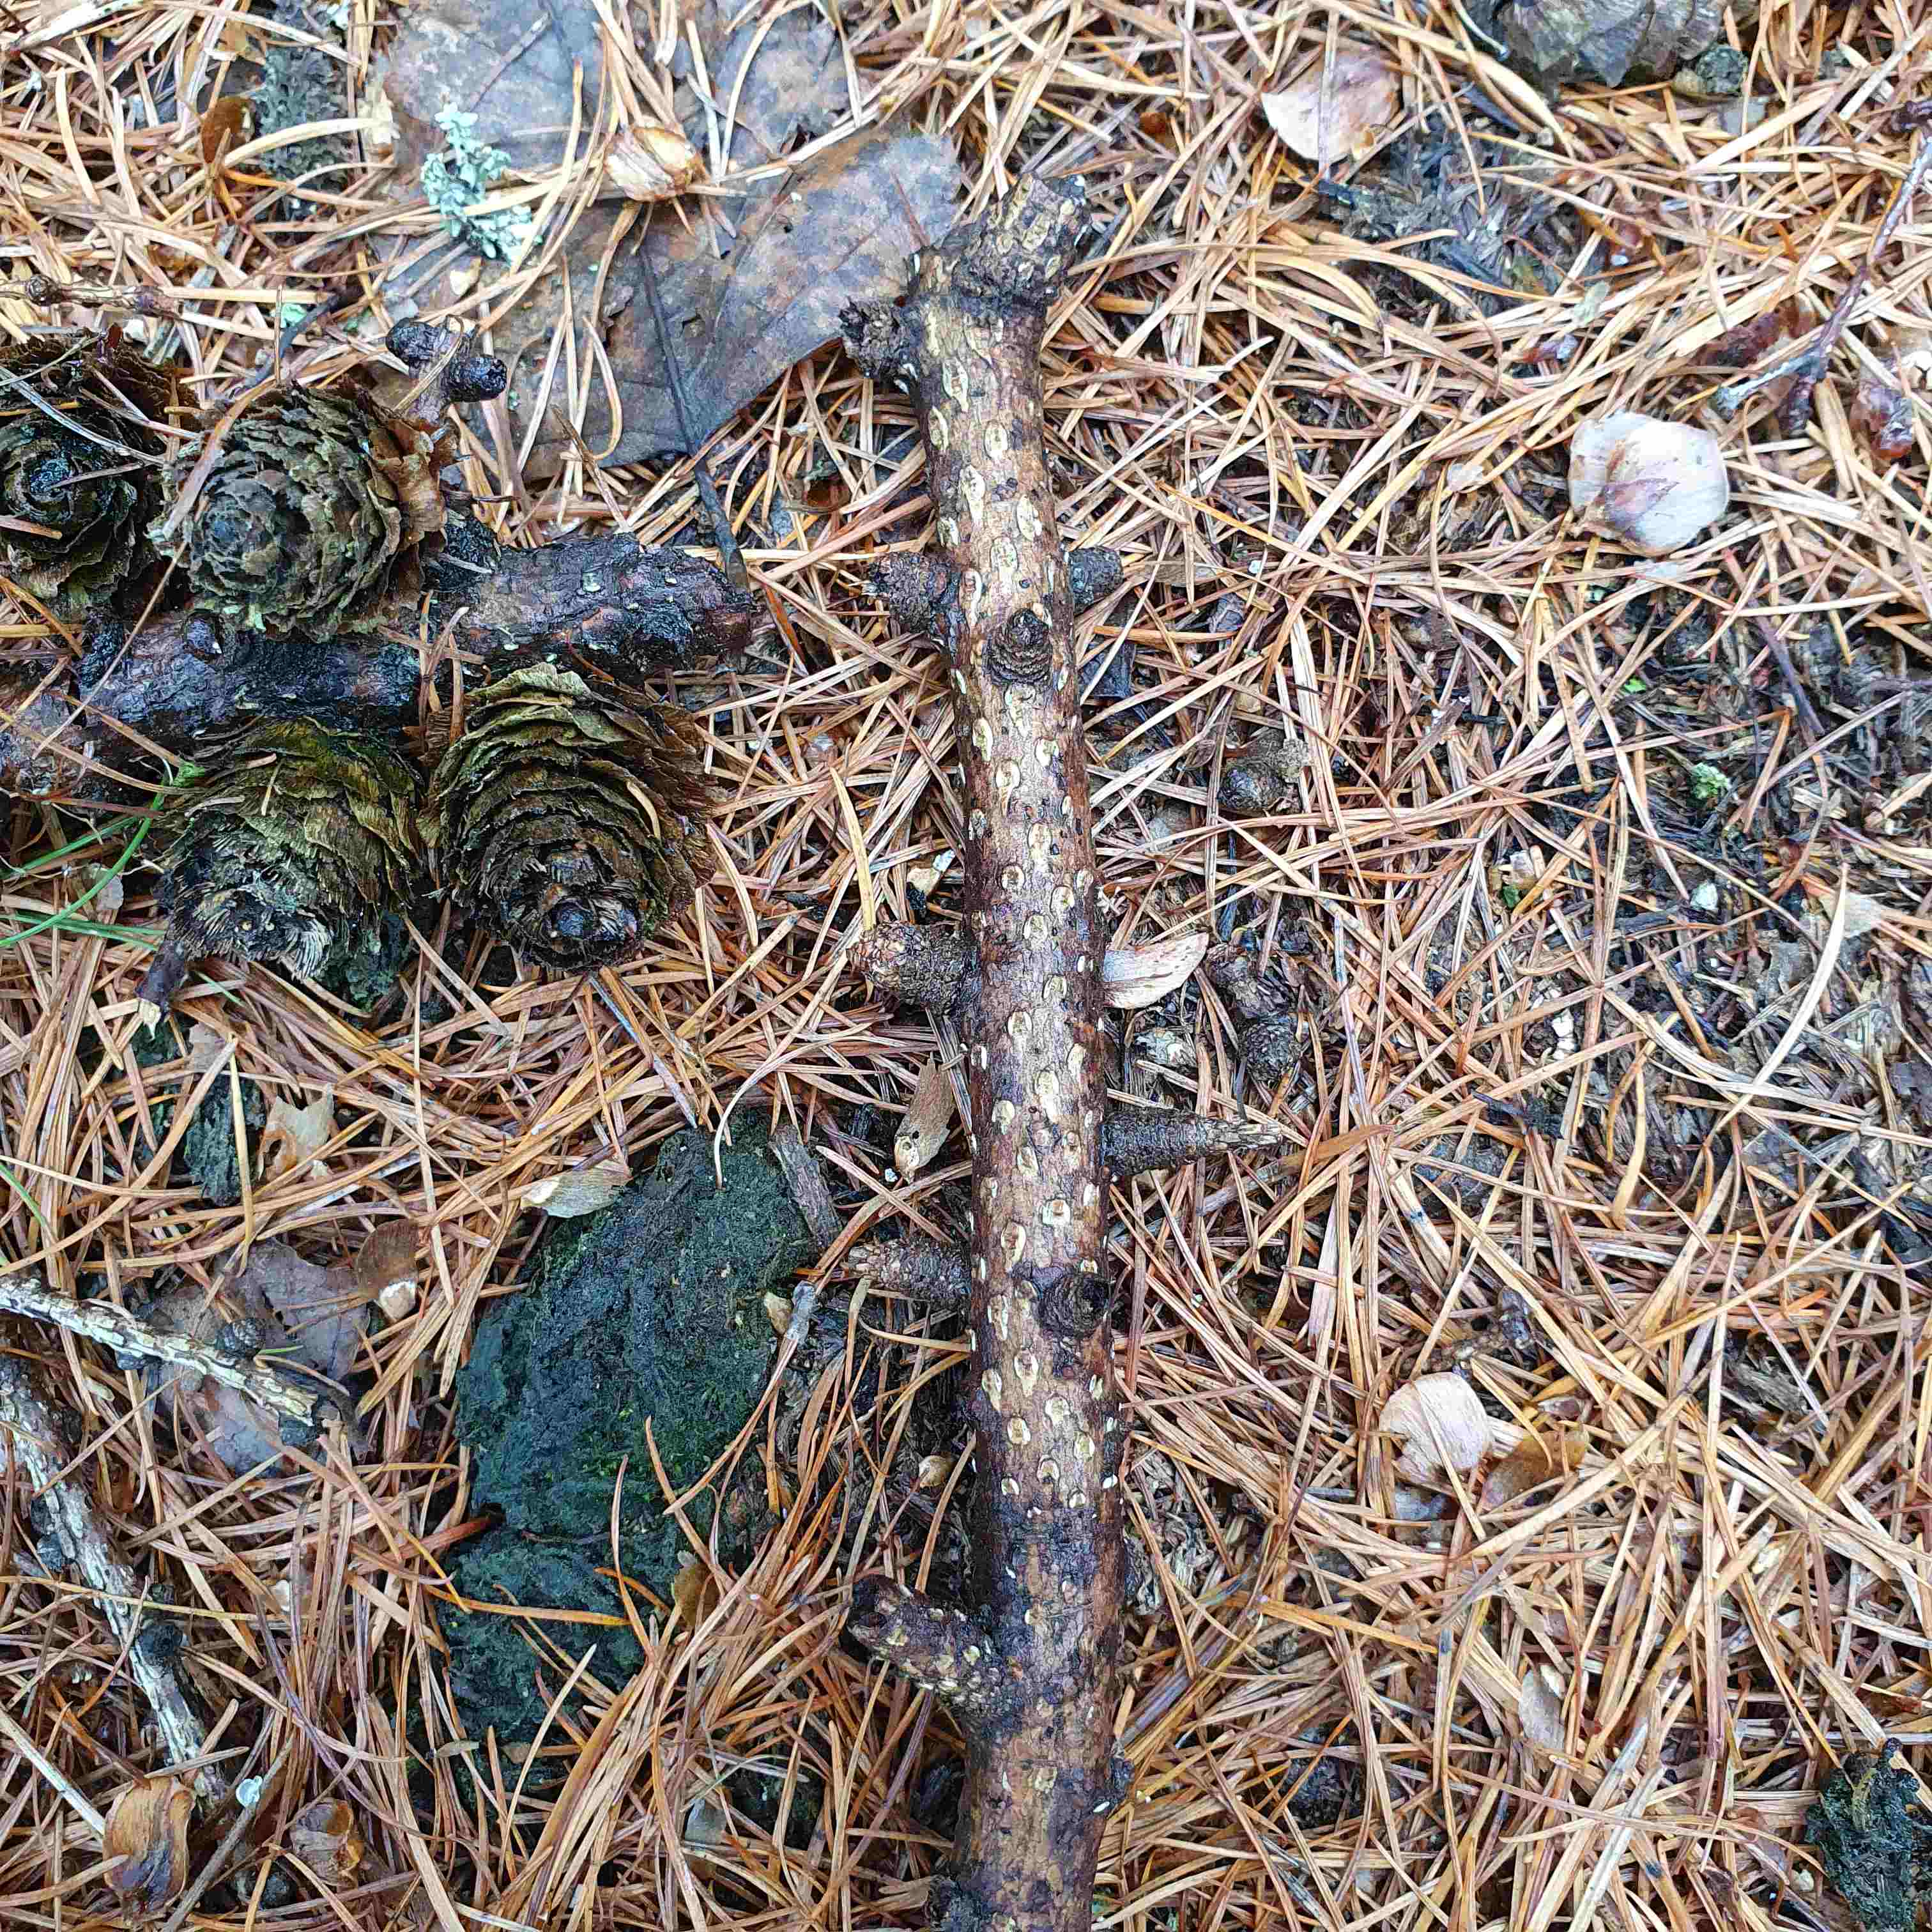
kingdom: Fungi
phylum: Ascomycota
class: Sordariomycetes
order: Diaporthales
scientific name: Diaporthales
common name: kulknippeordenen
